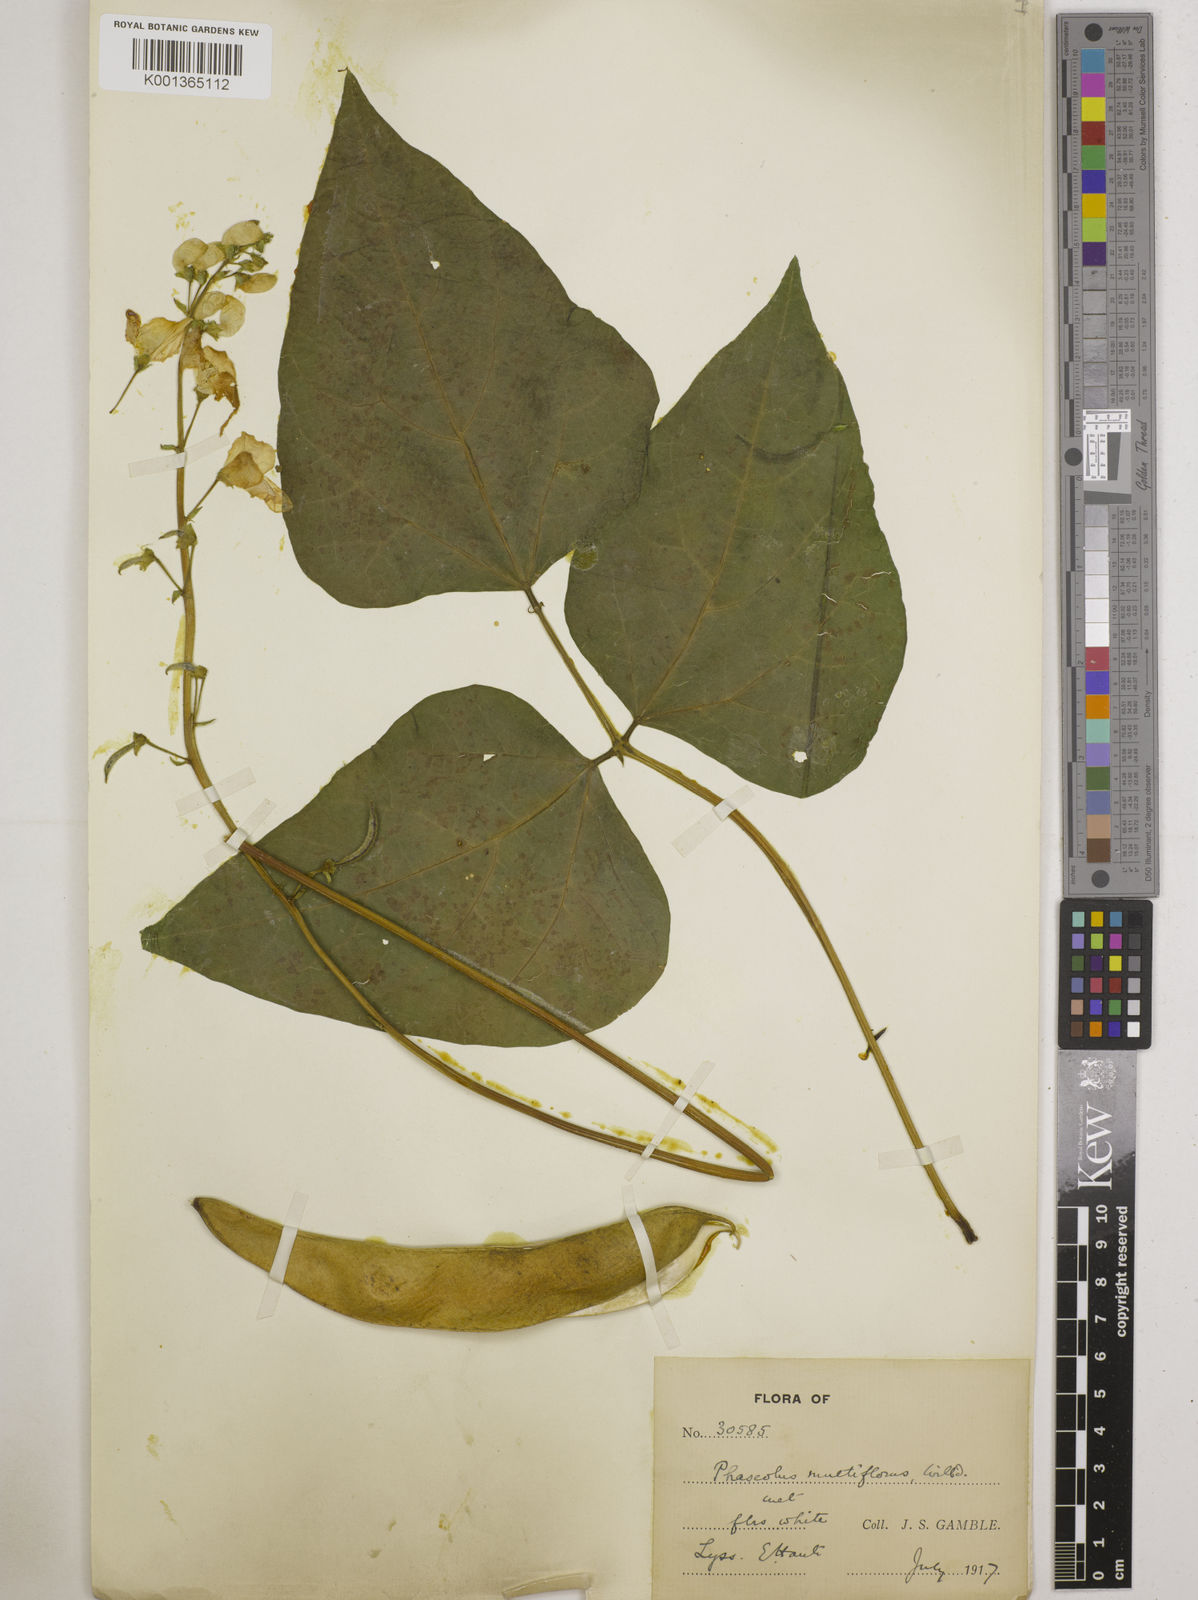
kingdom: Plantae
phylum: Tracheophyta
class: Magnoliopsida
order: Fabales
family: Fabaceae
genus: Phaseolus
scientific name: Phaseolus vulgaris
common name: Bean
